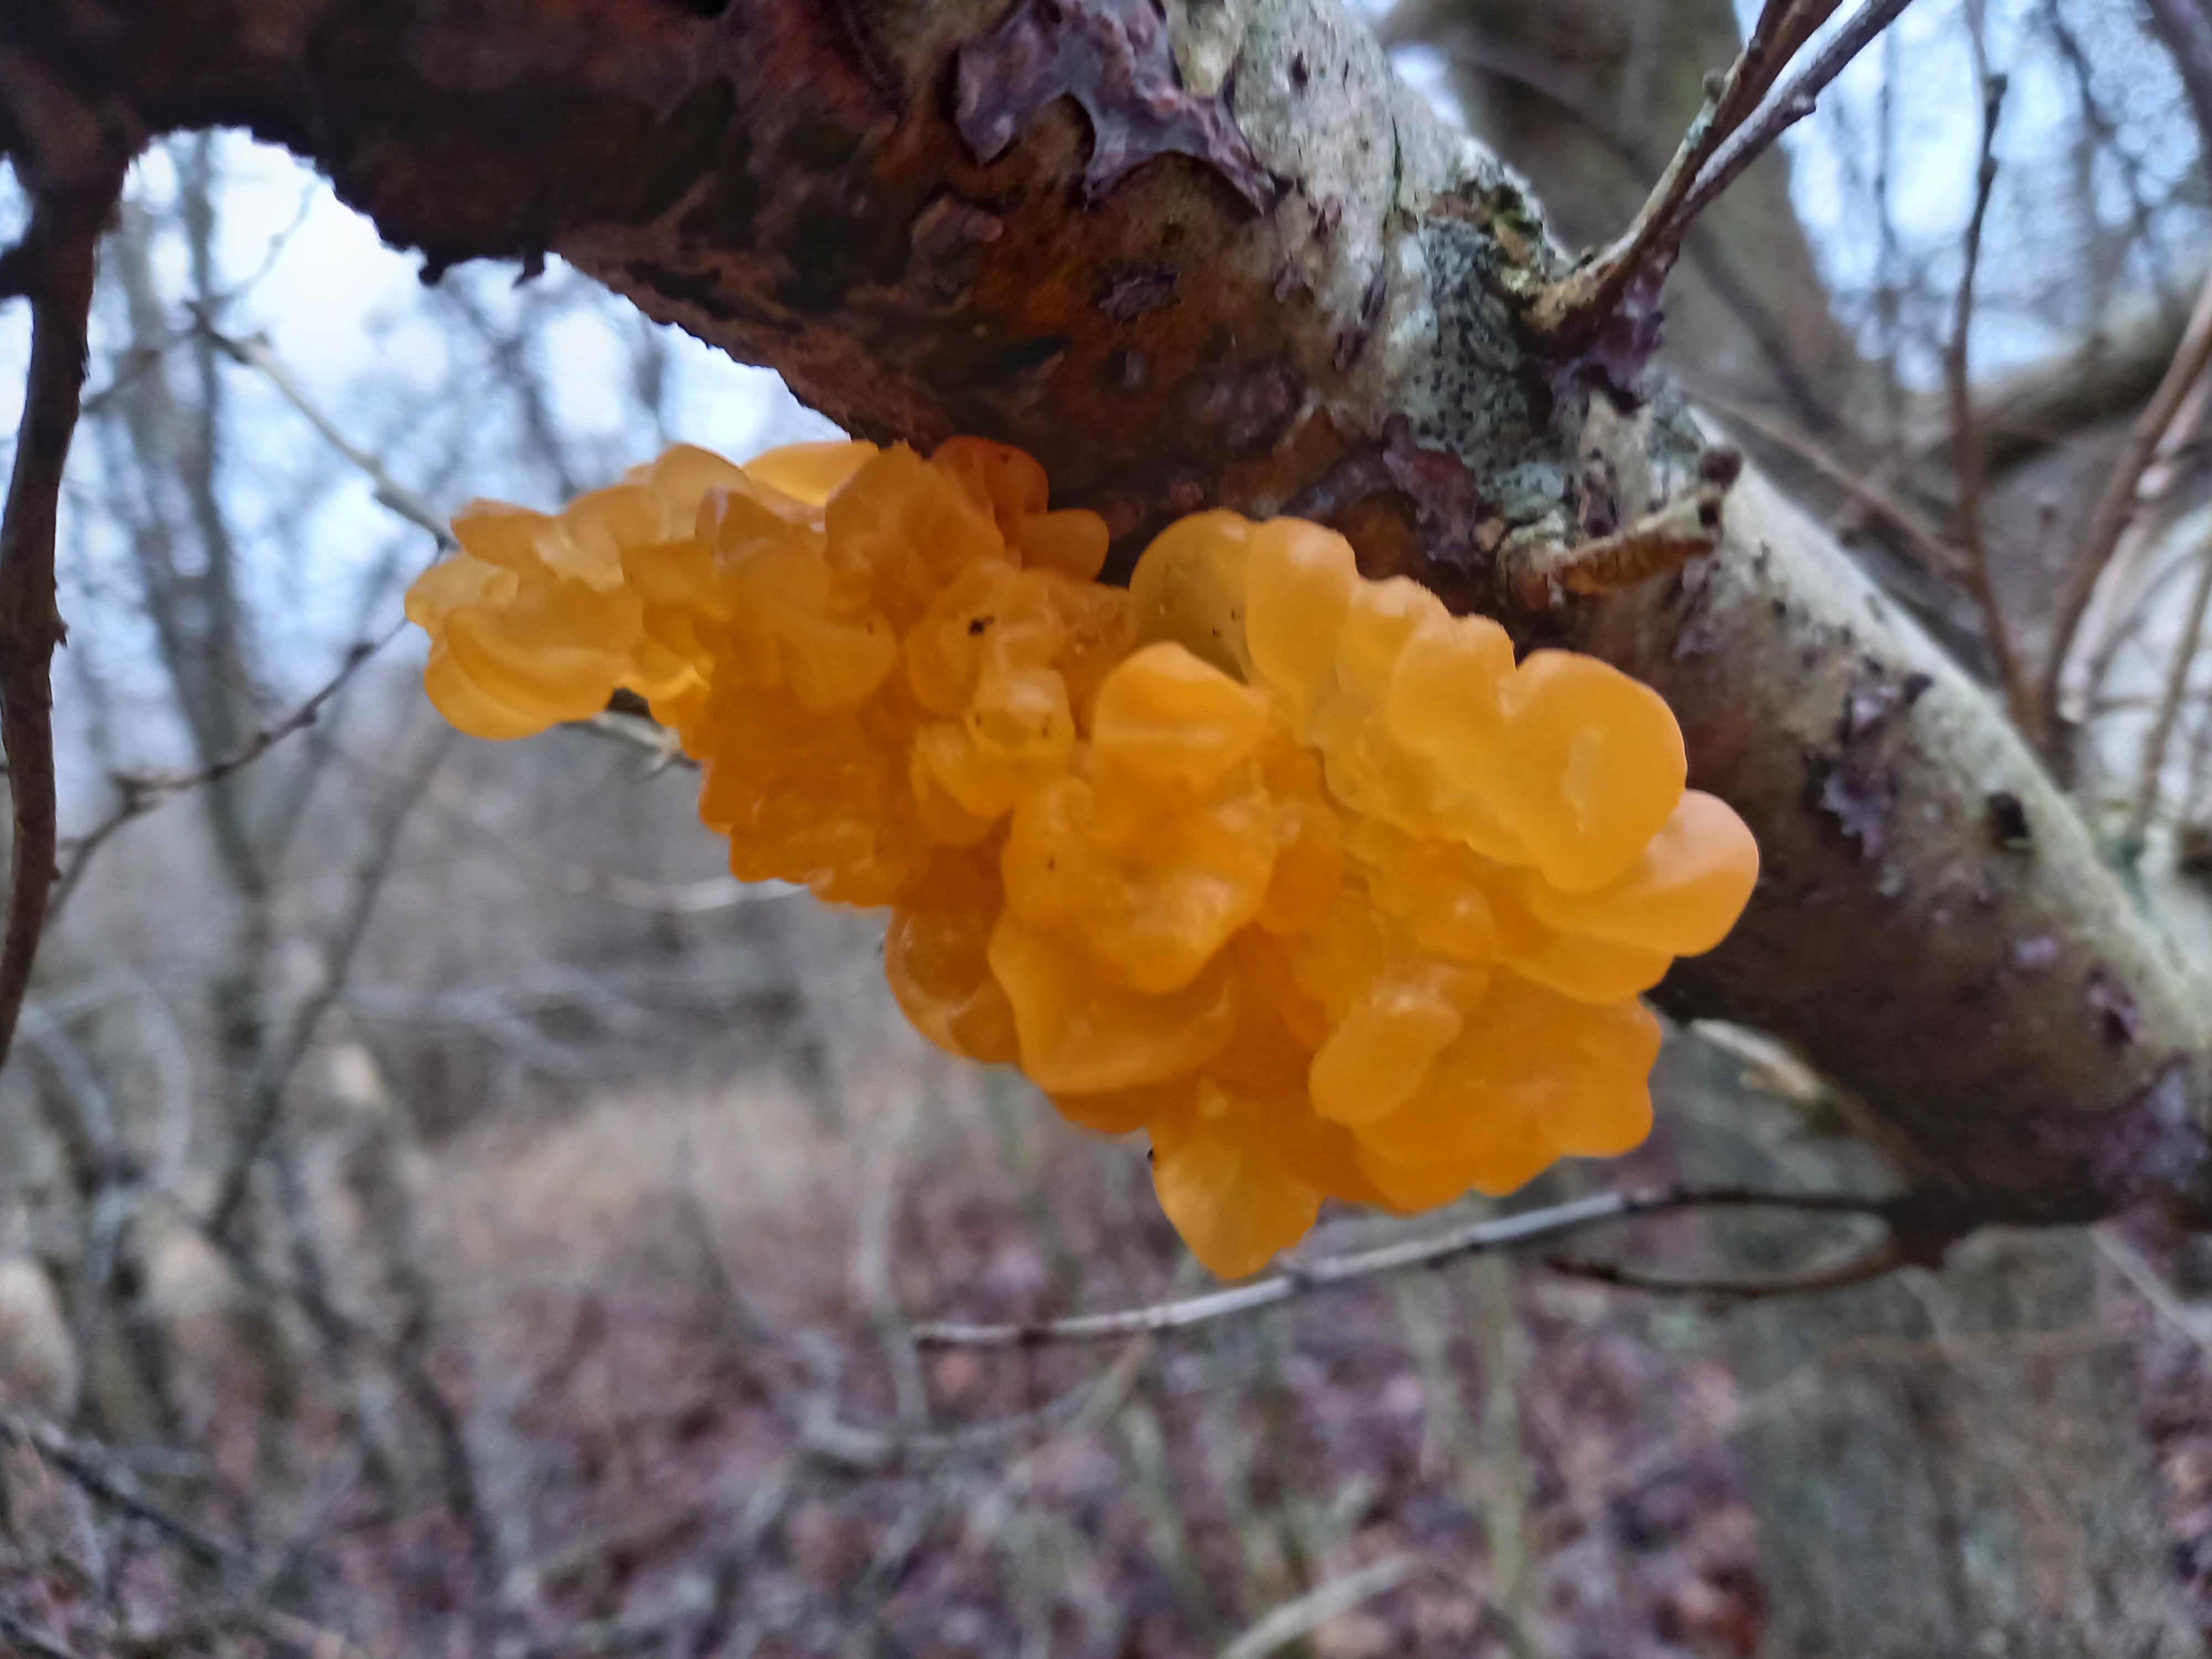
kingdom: Fungi
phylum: Basidiomycota
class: Tremellomycetes
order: Tremellales
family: Tremellaceae
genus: Tremella
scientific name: Tremella mesenterica
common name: gul bævresvamp
